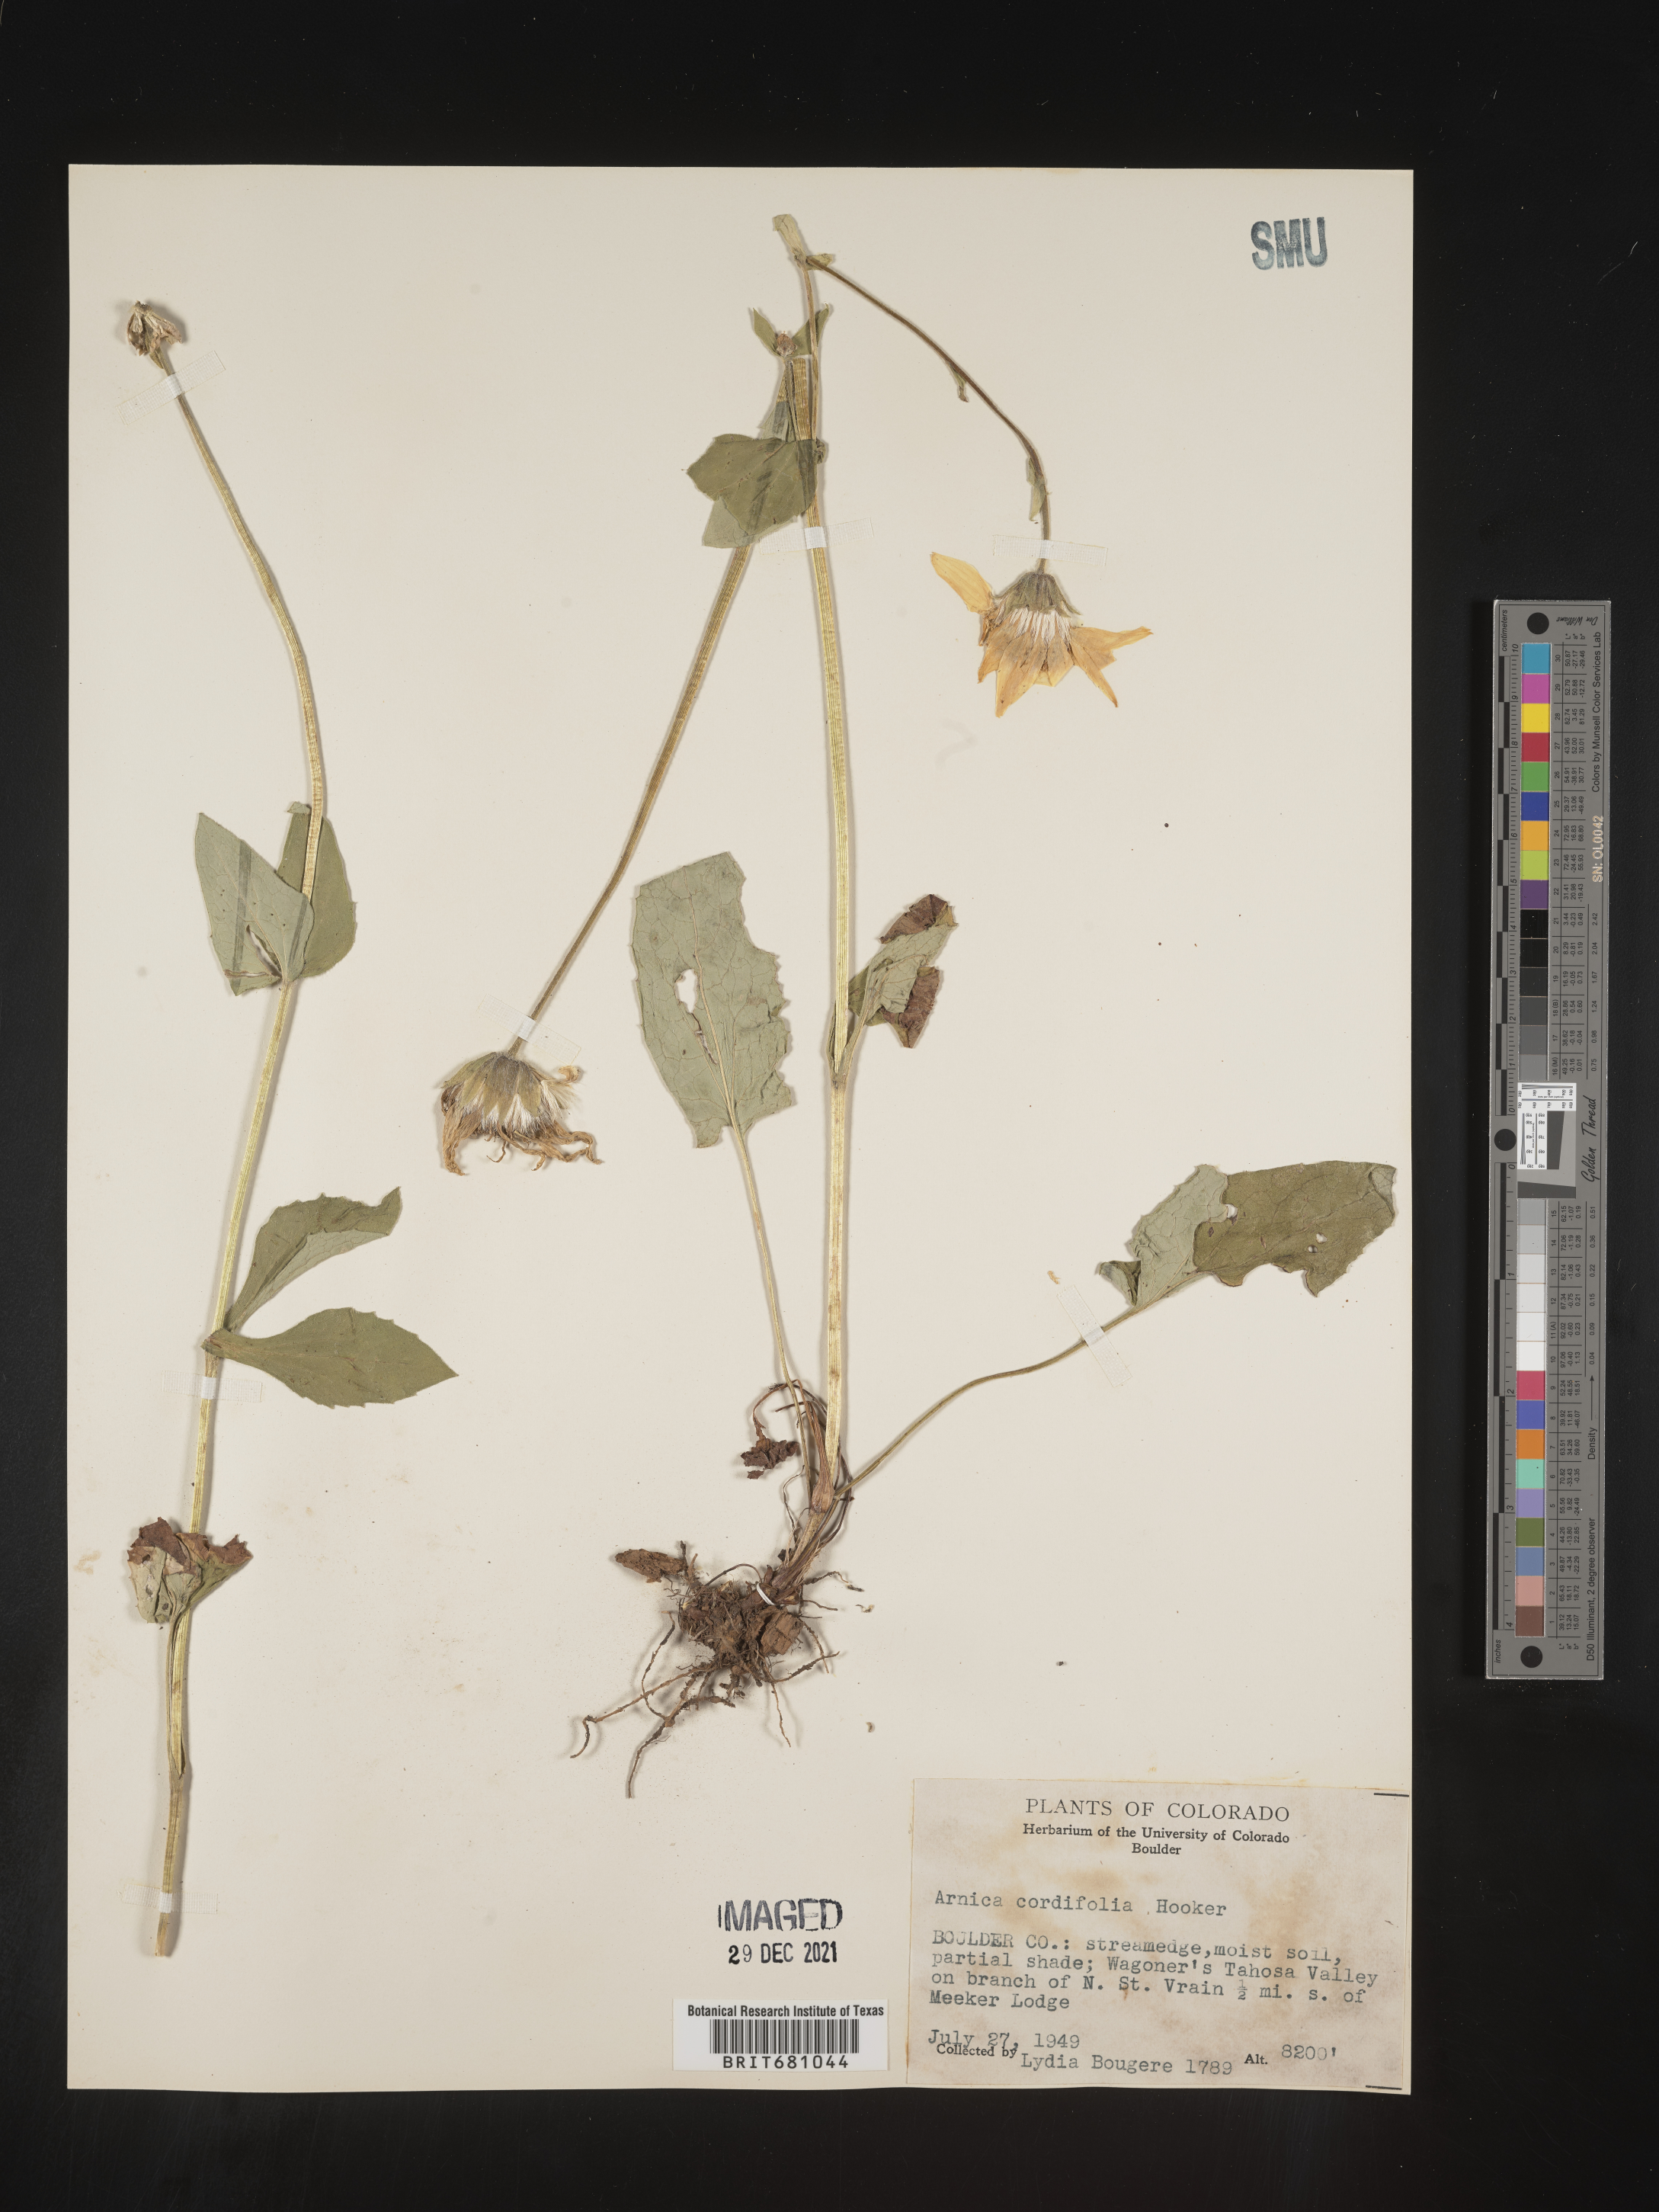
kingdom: Plantae
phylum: Tracheophyta
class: Magnoliopsida
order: Asterales
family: Asteraceae
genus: Arnica
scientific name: Arnica cordifolia
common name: Heart-leaf arnica
